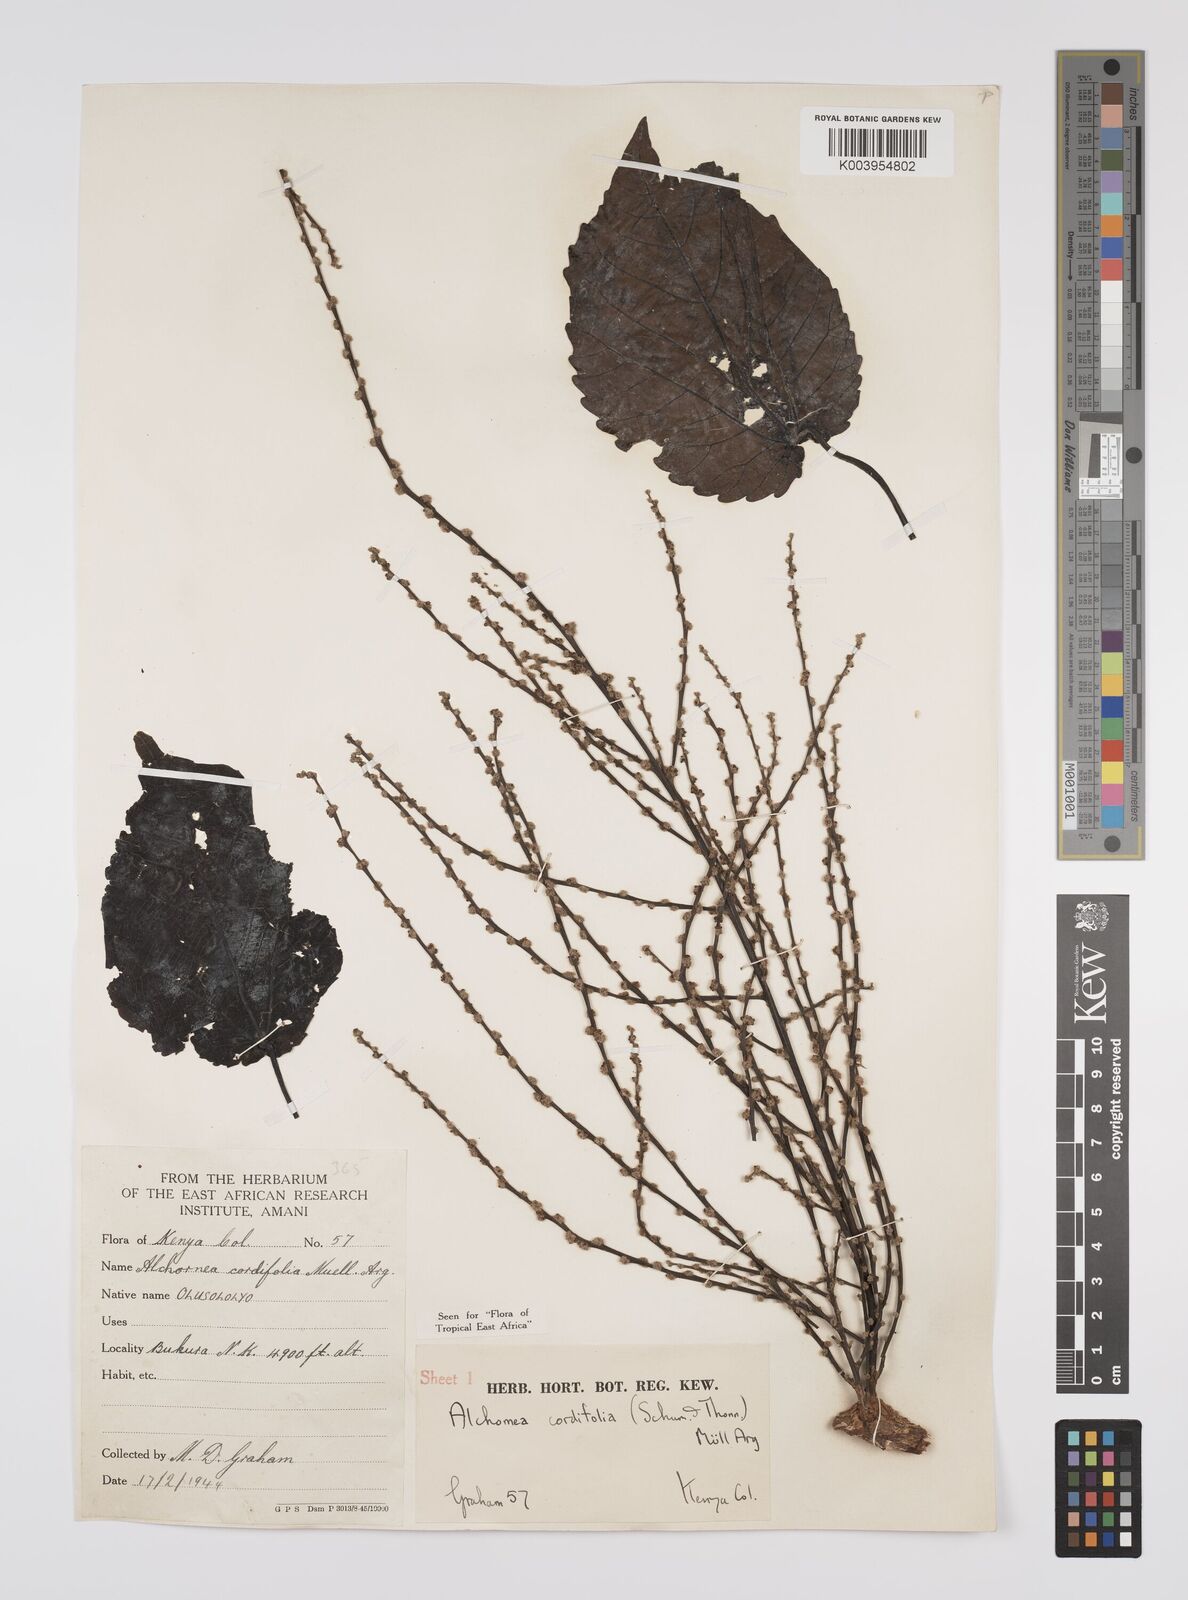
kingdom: Plantae
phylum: Tracheophyta
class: Magnoliopsida
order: Malpighiales
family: Euphorbiaceae
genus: Alchornea
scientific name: Alchornea cordifolia
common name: Christmasbush
